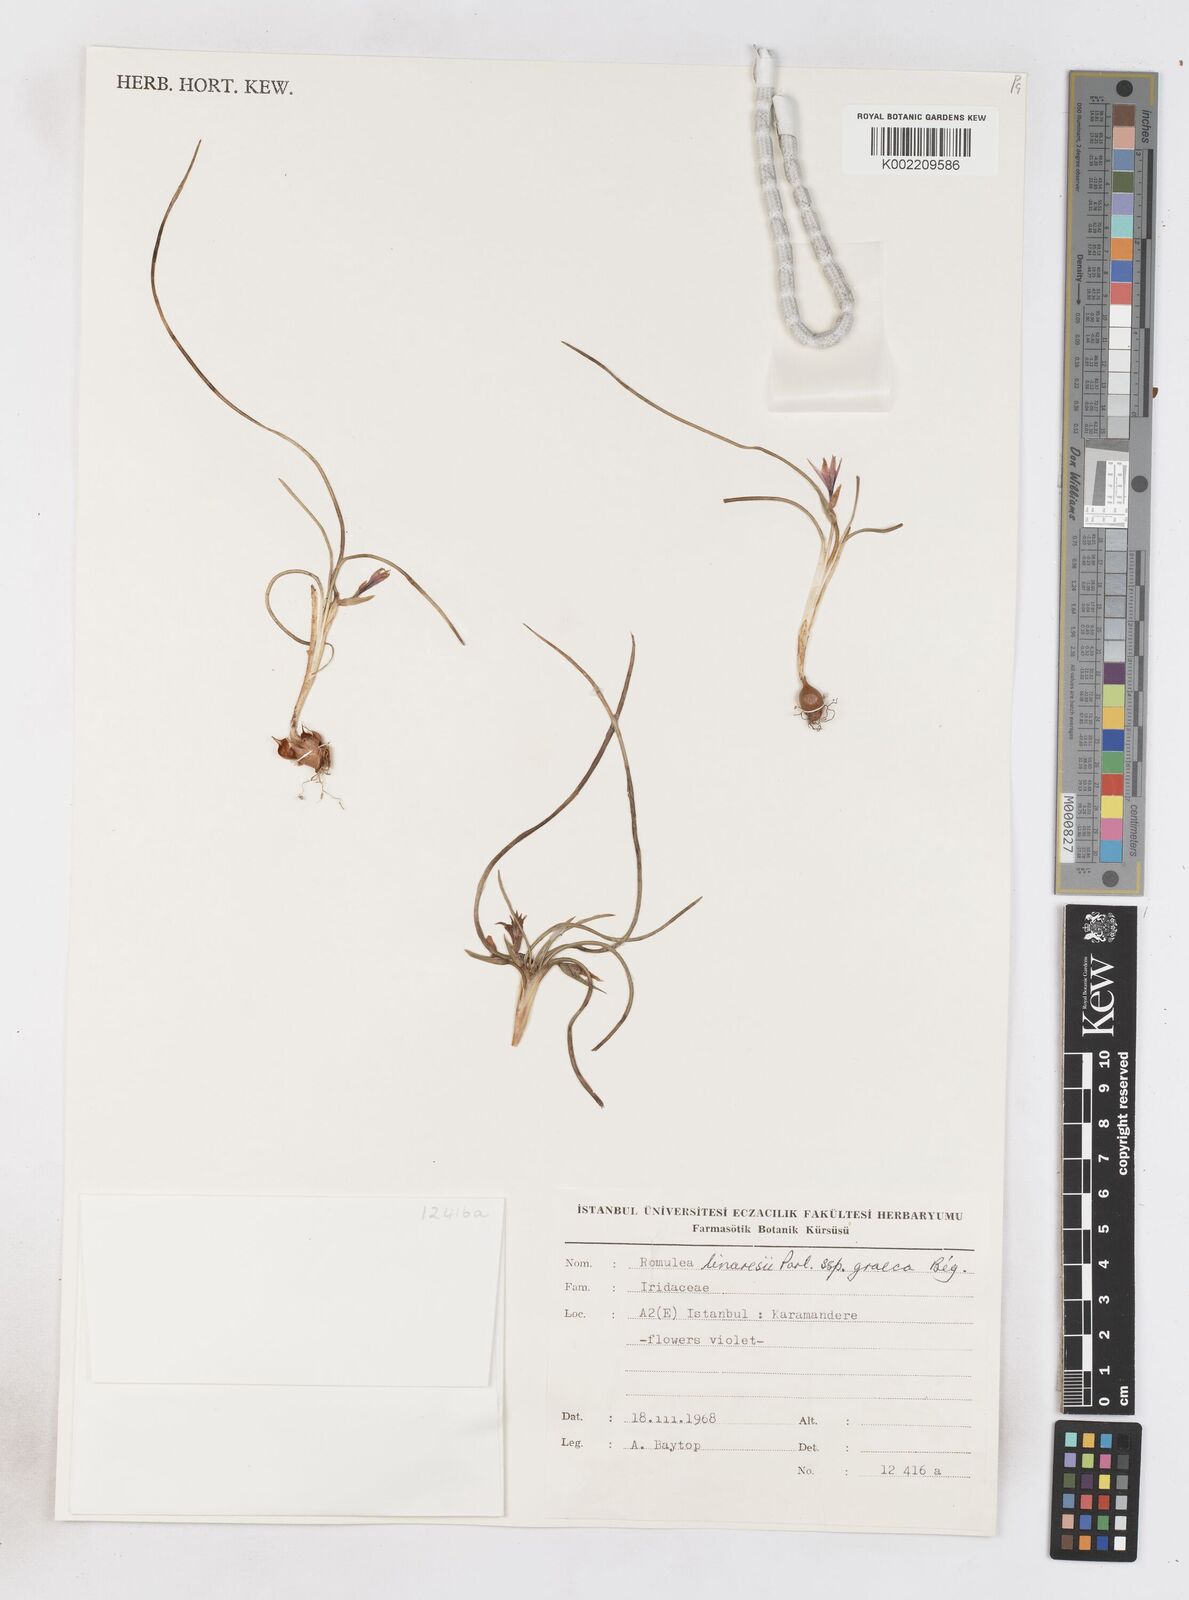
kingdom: Plantae
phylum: Tracheophyta
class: Liliopsida
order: Asparagales
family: Iridaceae
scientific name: Iridaceae
